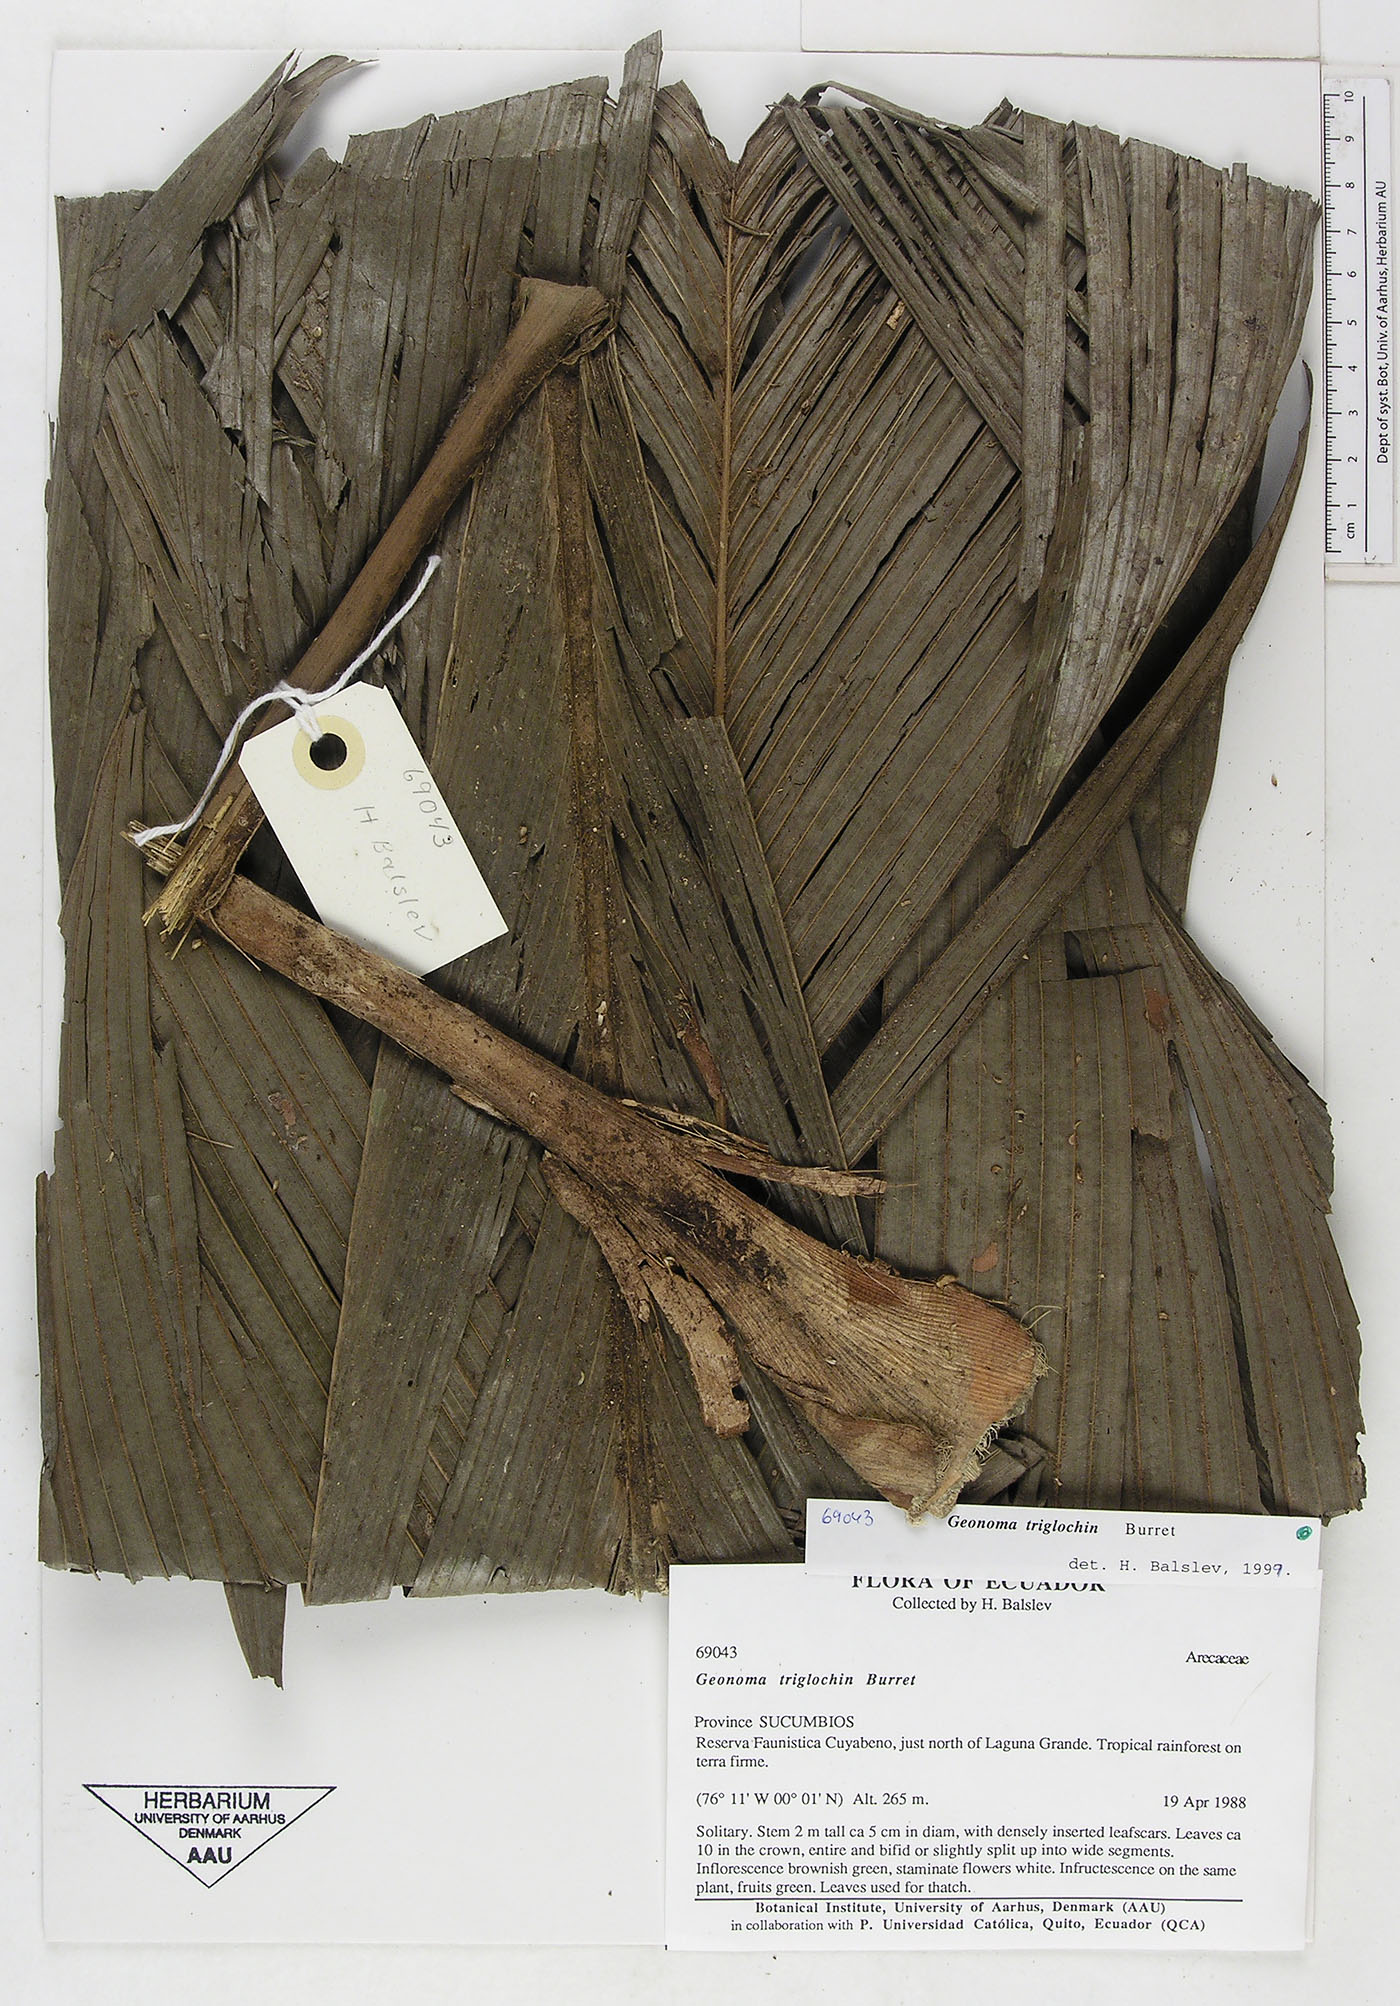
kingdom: Plantae
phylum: Tracheophyta
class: Liliopsida
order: Arecales
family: Arecaceae
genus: Geonoma
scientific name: Geonoma triglochin
